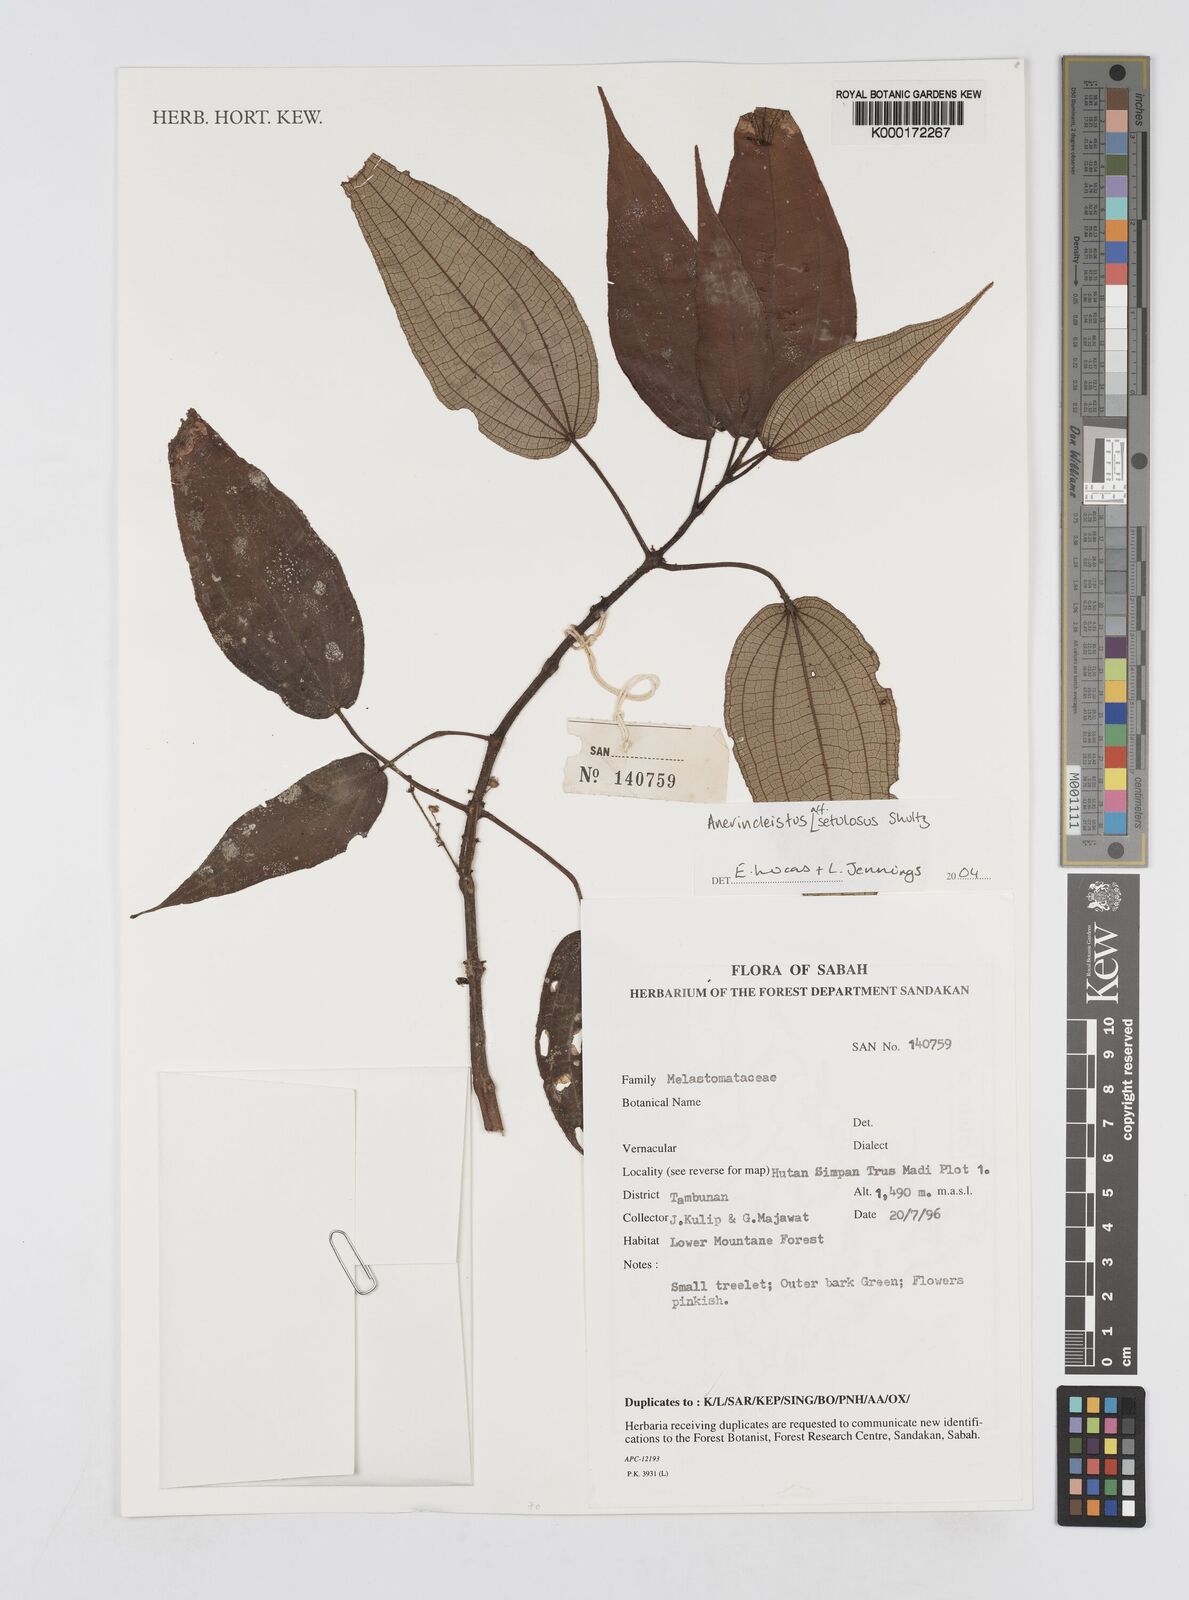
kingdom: Plantae
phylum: Tracheophyta
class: Magnoliopsida
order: Myrtales
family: Melastomataceae
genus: Anerincleistus
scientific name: Anerincleistus
